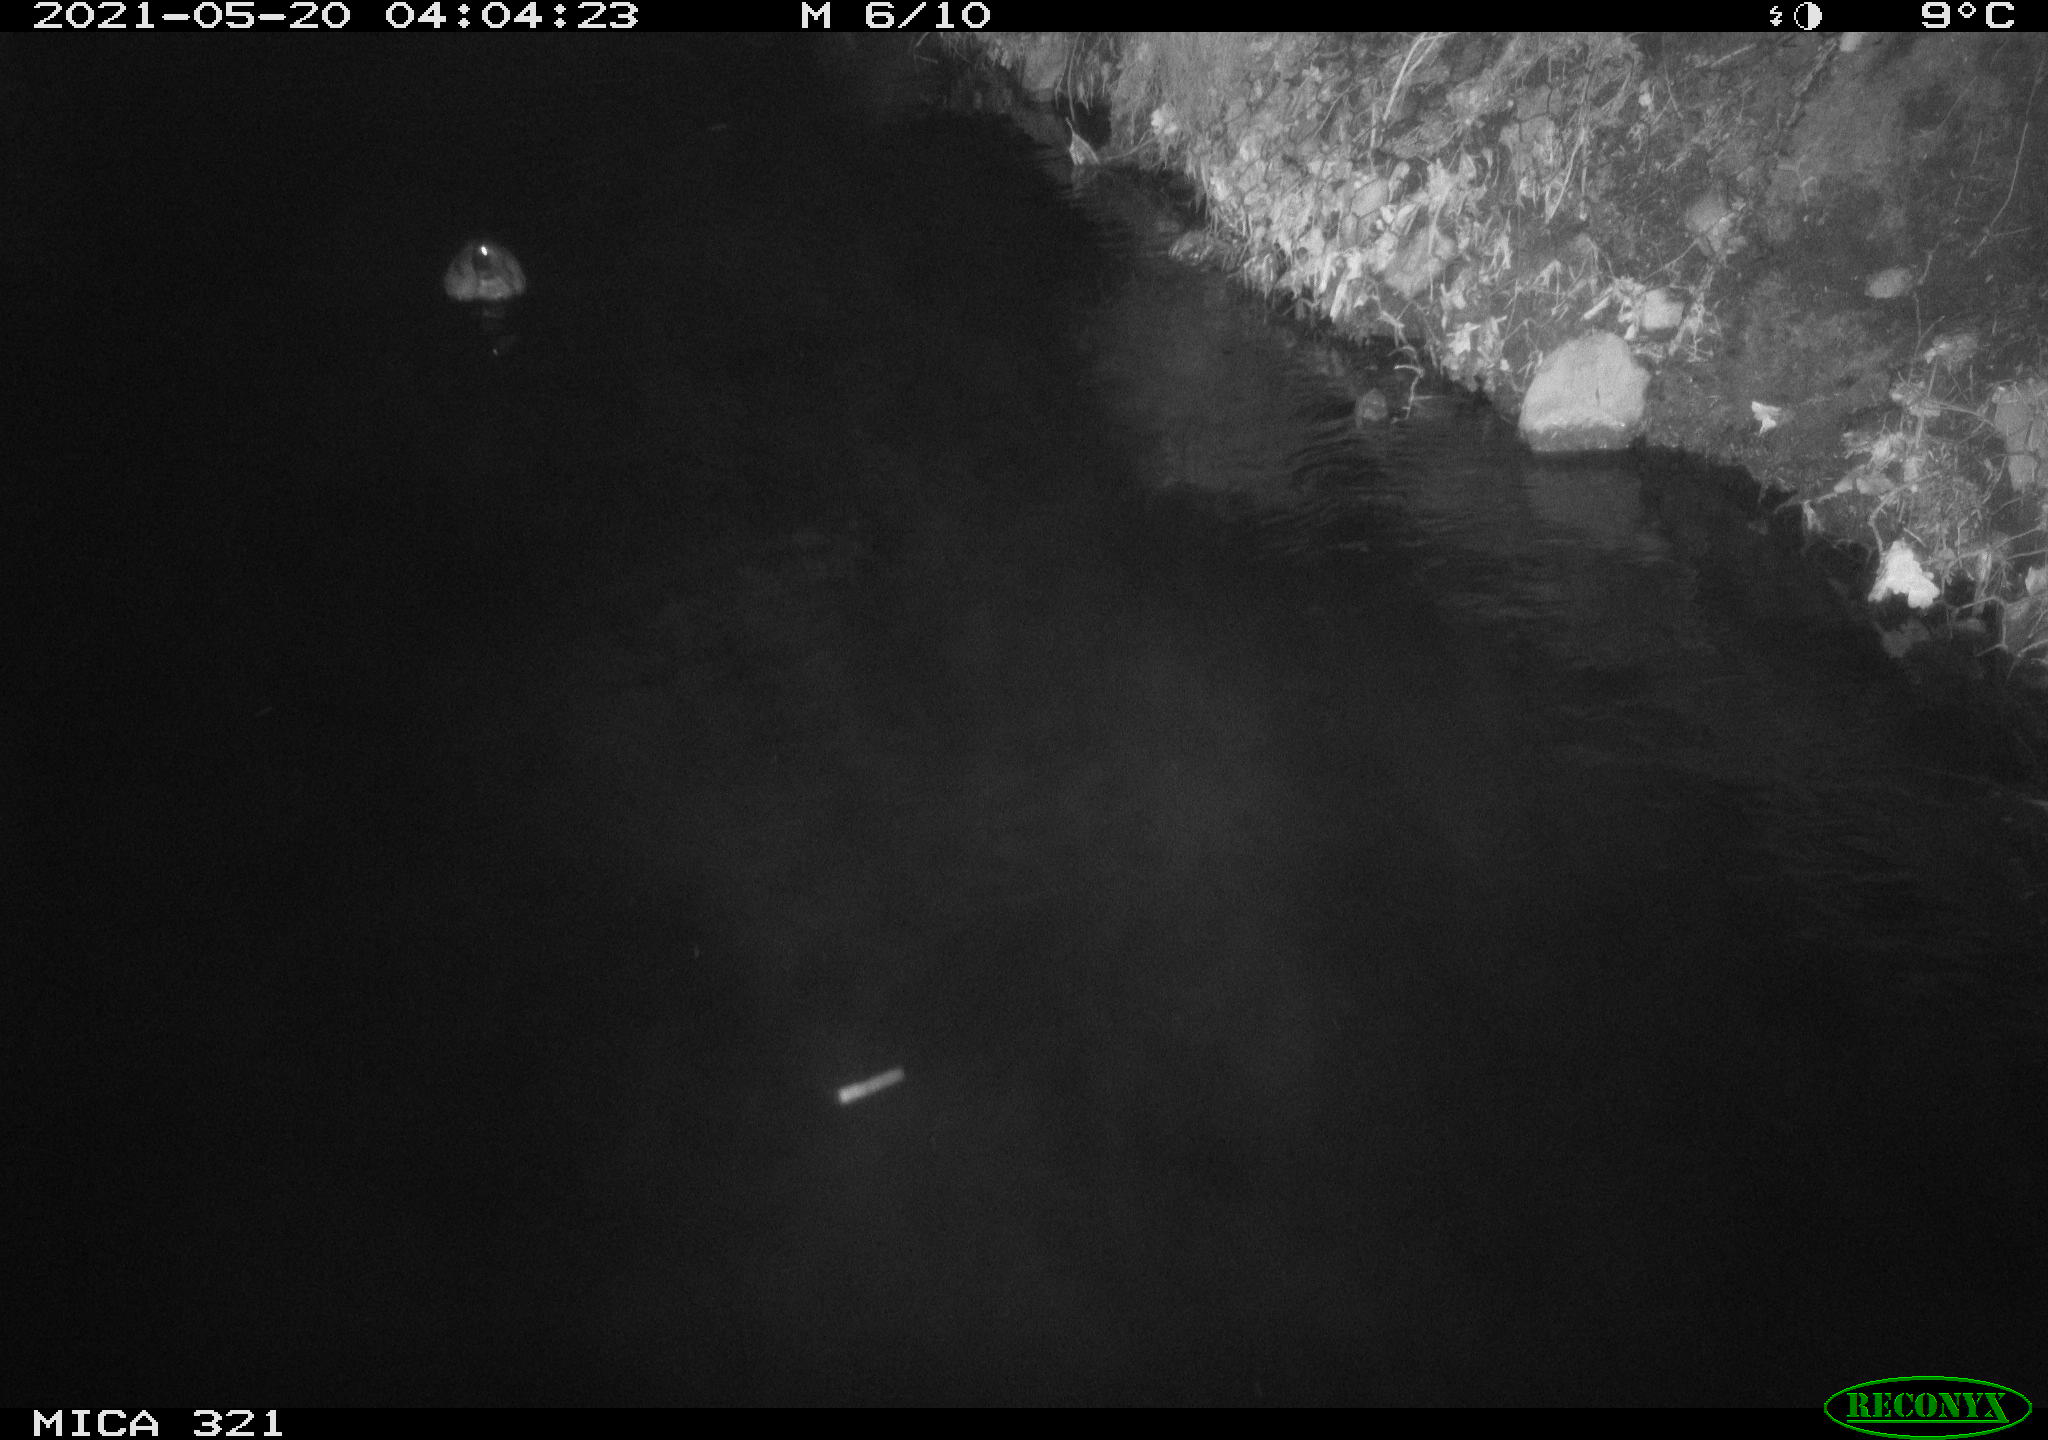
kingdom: Animalia
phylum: Chordata
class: Aves
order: Anseriformes
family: Anatidae
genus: Anas
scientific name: Anas platyrhynchos
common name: Mallard
